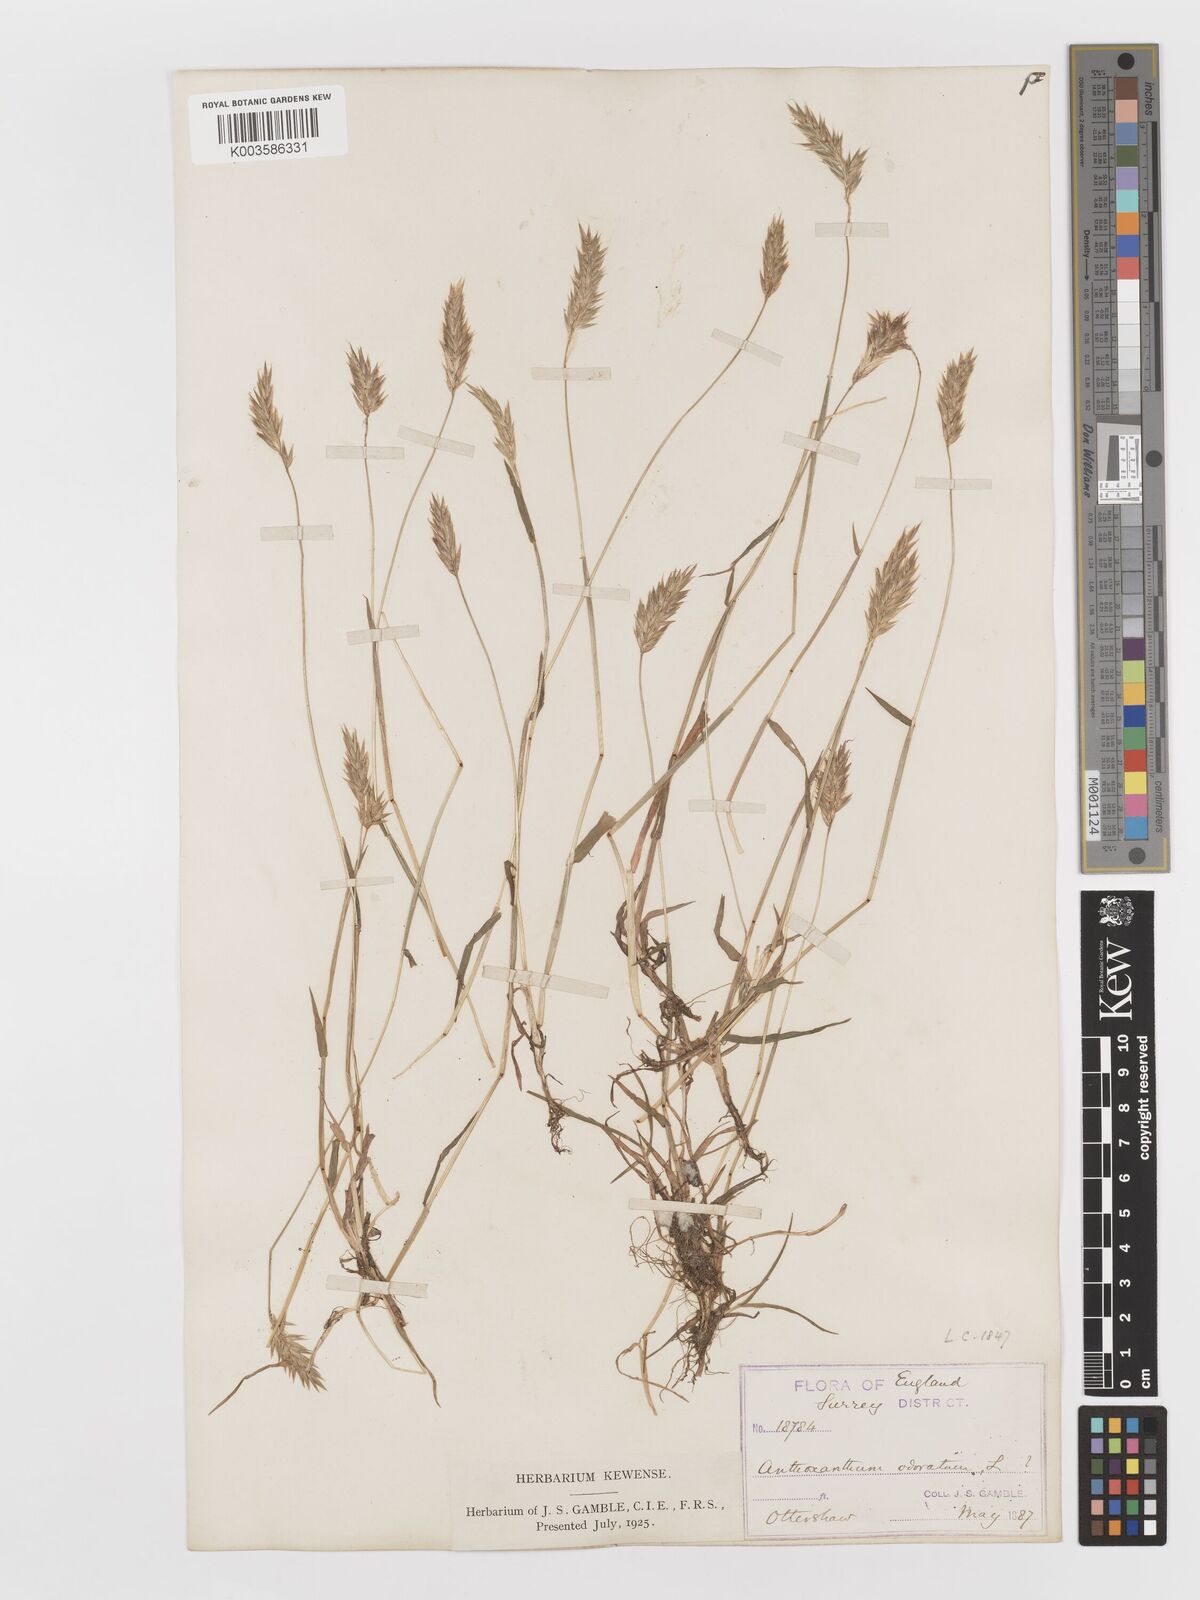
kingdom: Plantae
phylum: Tracheophyta
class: Liliopsida
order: Poales
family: Poaceae
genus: Anthoxanthum
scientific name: Anthoxanthum odoratum
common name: Sweet vernalgrass
